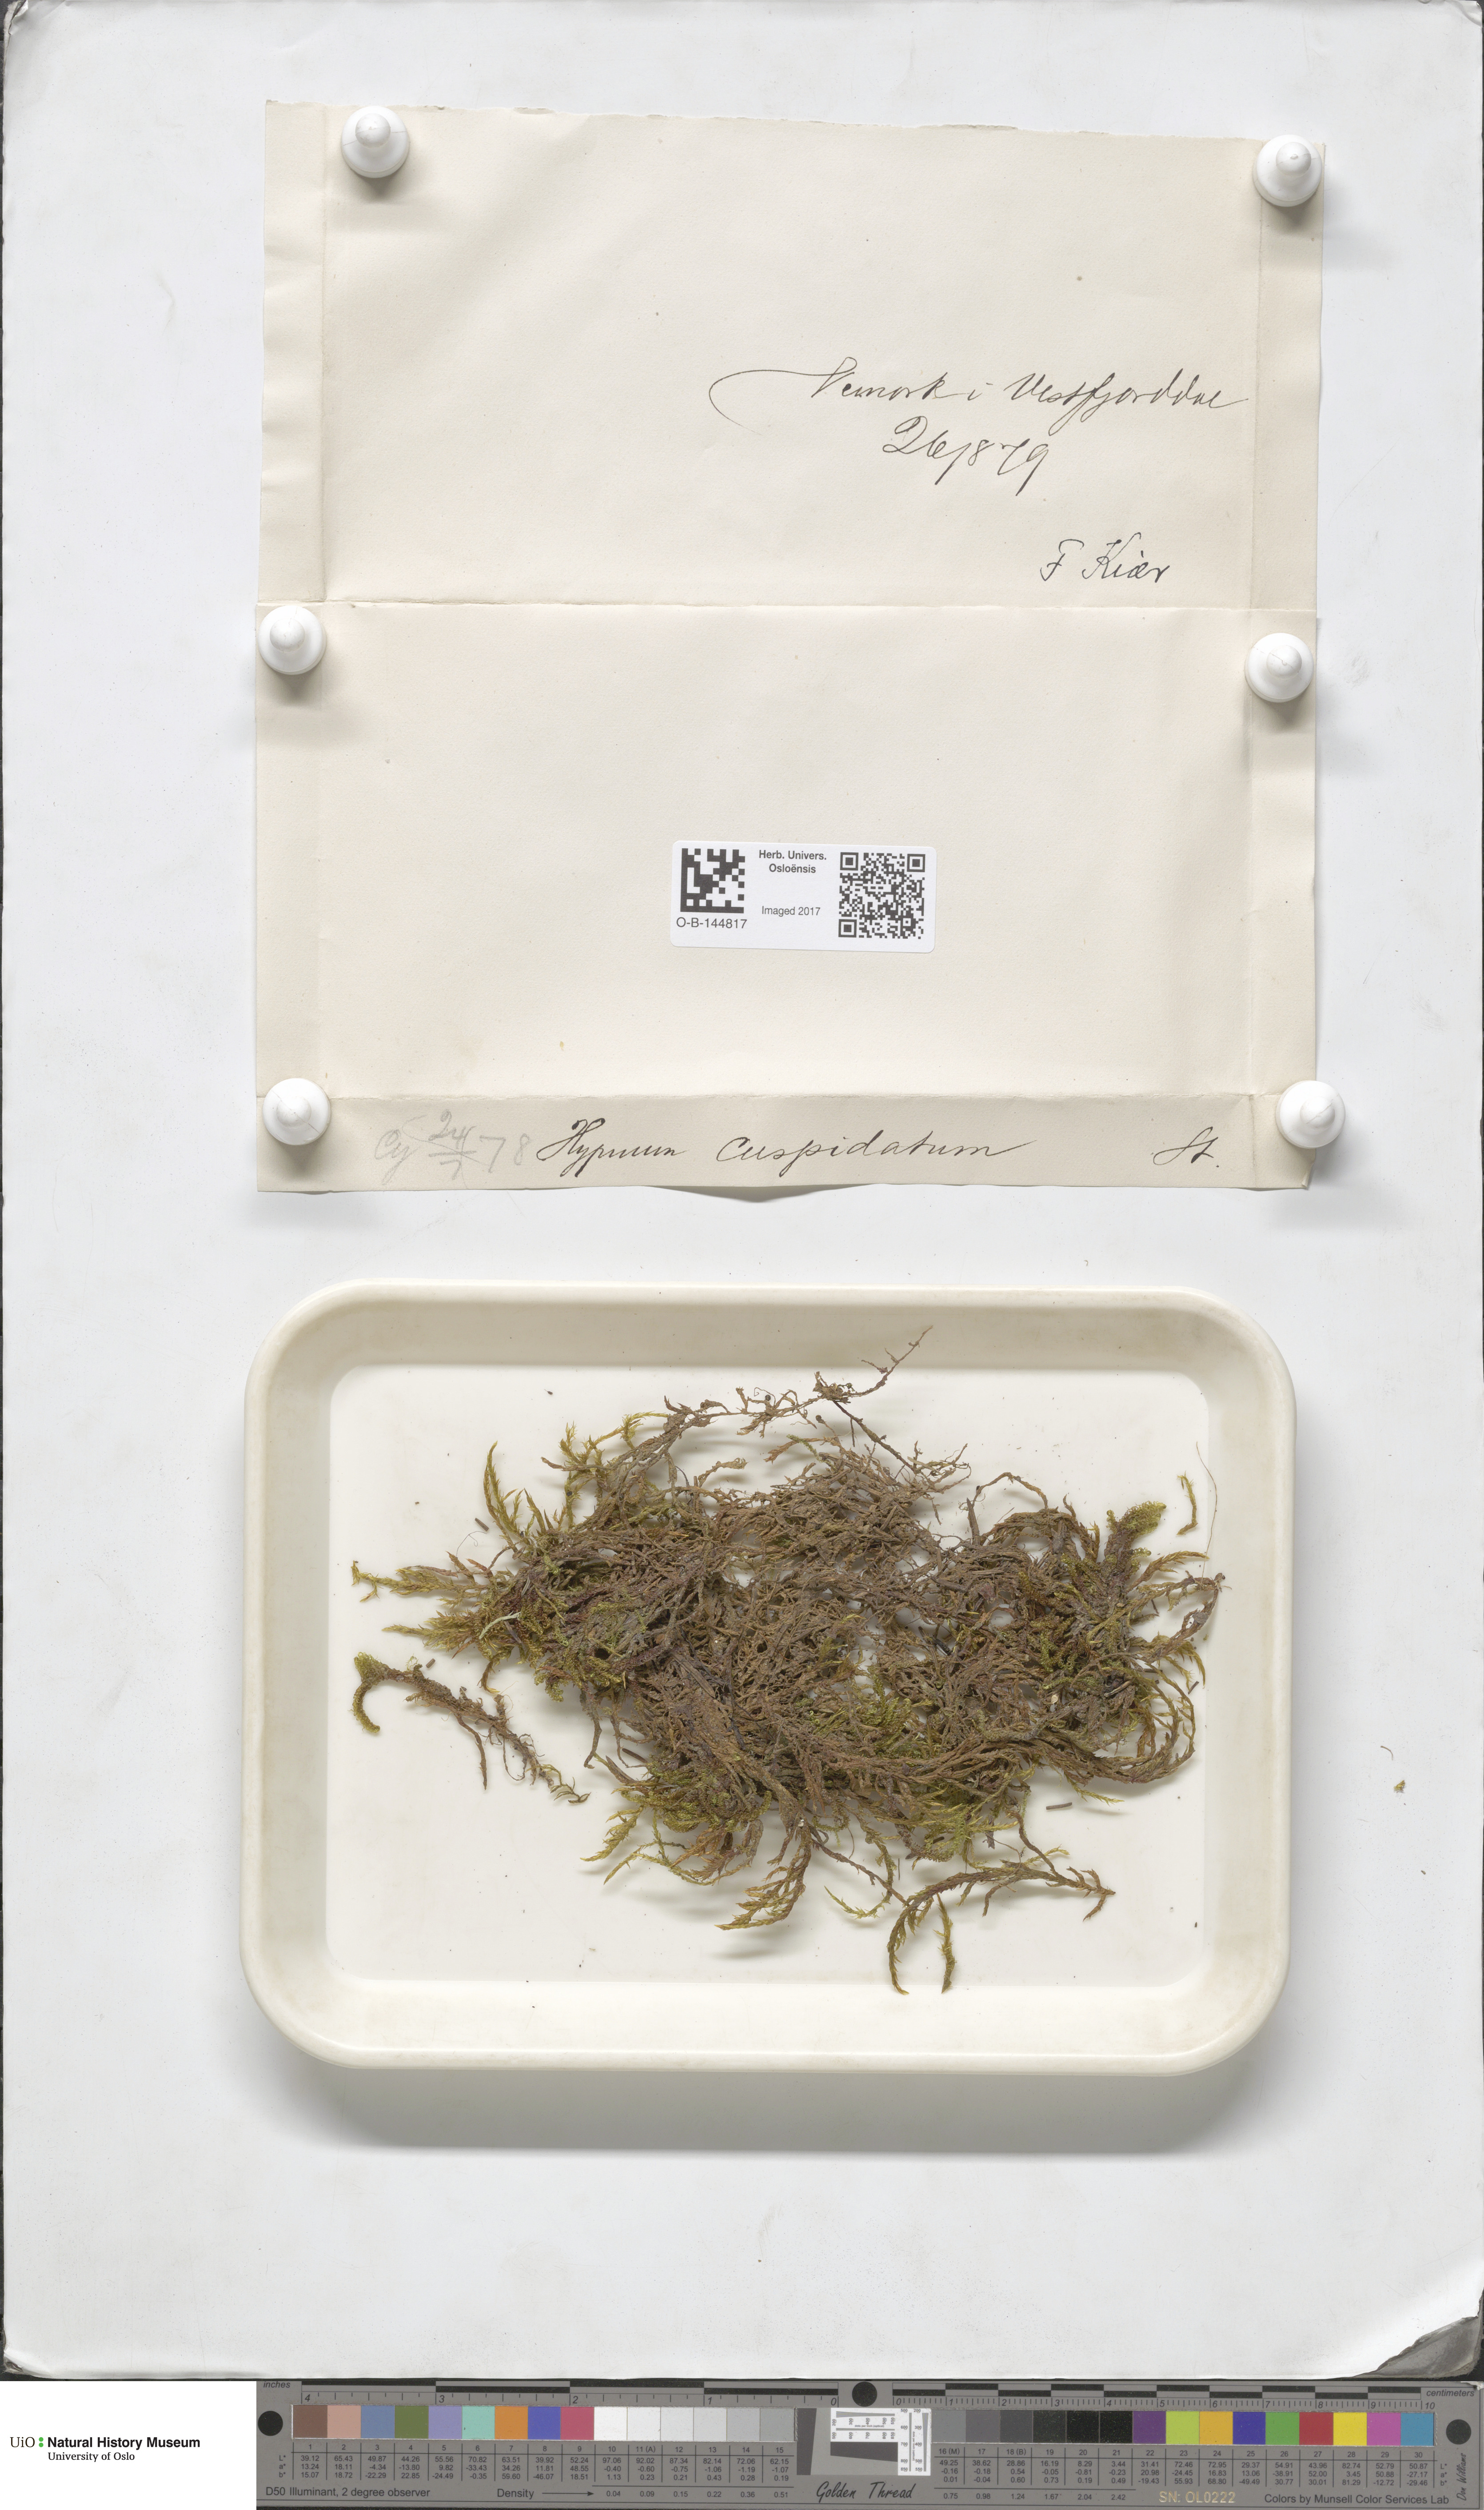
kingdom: Plantae
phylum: Bryophyta
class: Bryopsida
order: Hypnales
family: Pylaisiaceae
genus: Calliergonella
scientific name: Calliergonella cuspidata
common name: Common large wetland moss
